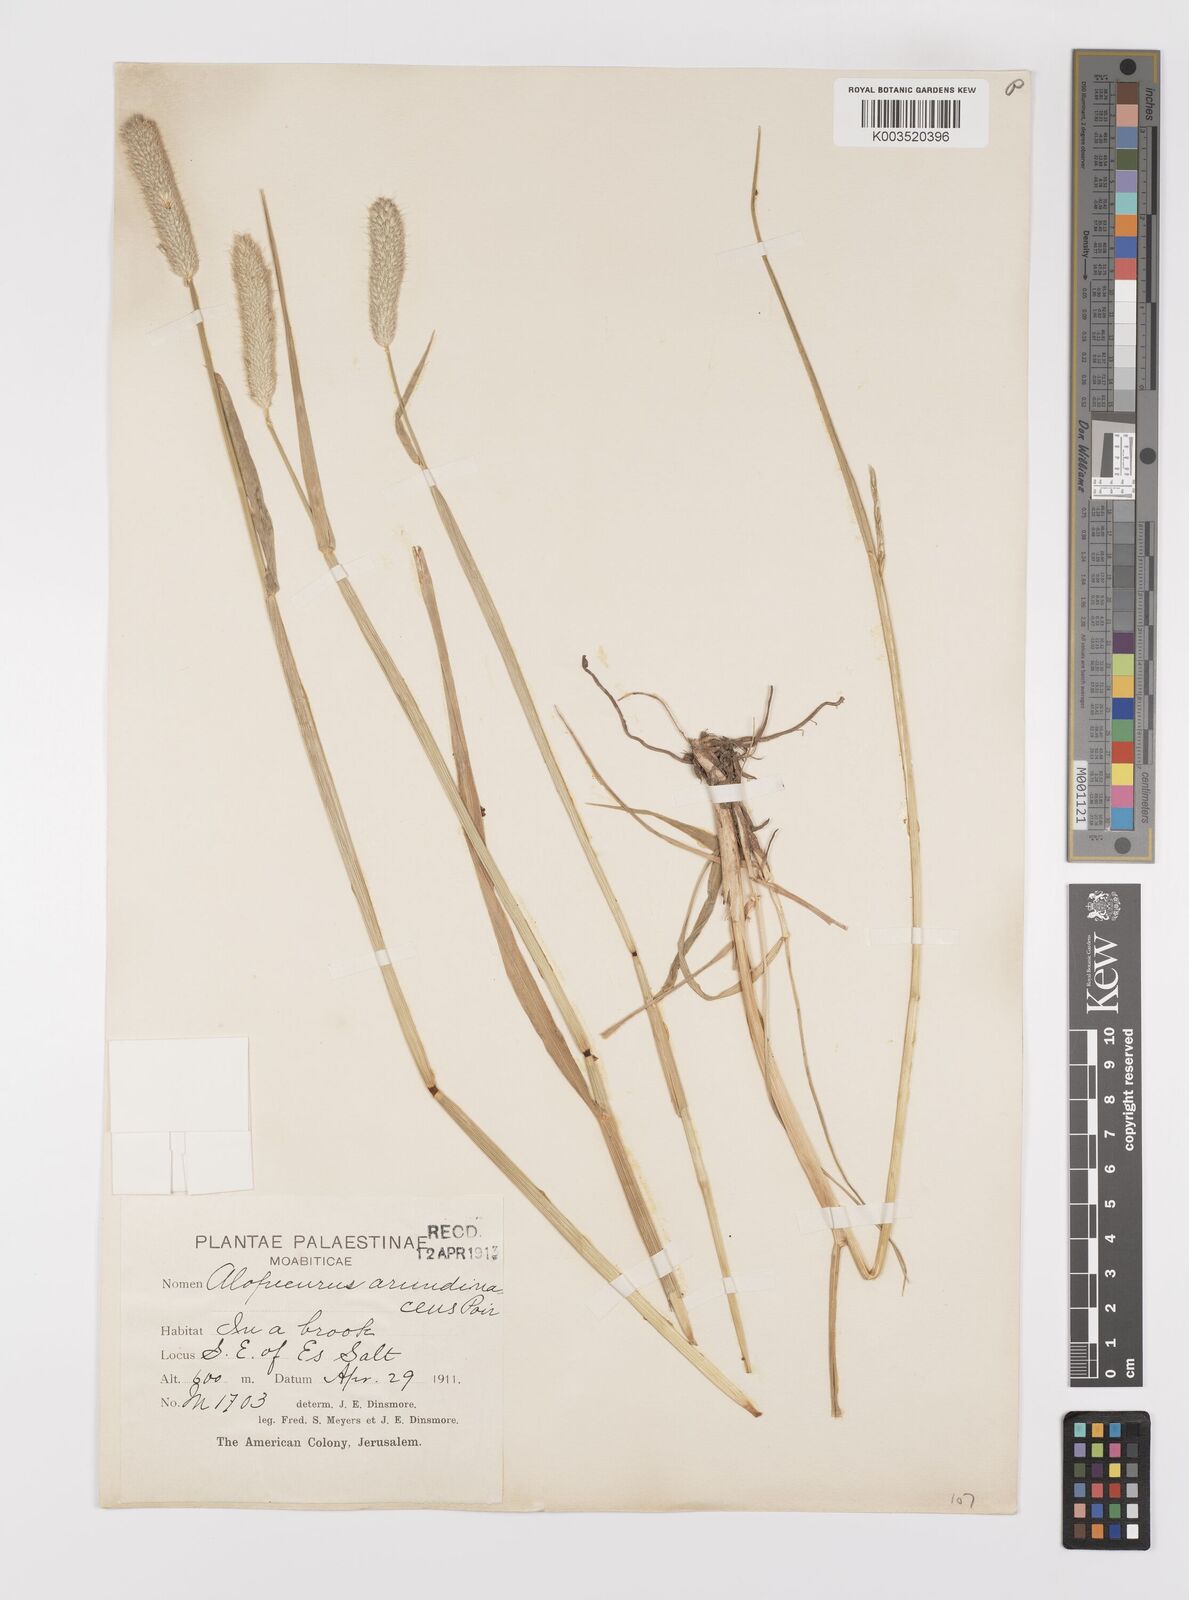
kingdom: Plantae
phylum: Tracheophyta
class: Liliopsida
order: Poales
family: Poaceae
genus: Alopecurus
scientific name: Alopecurus arundinaceus
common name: Creeping meadow foxtail
